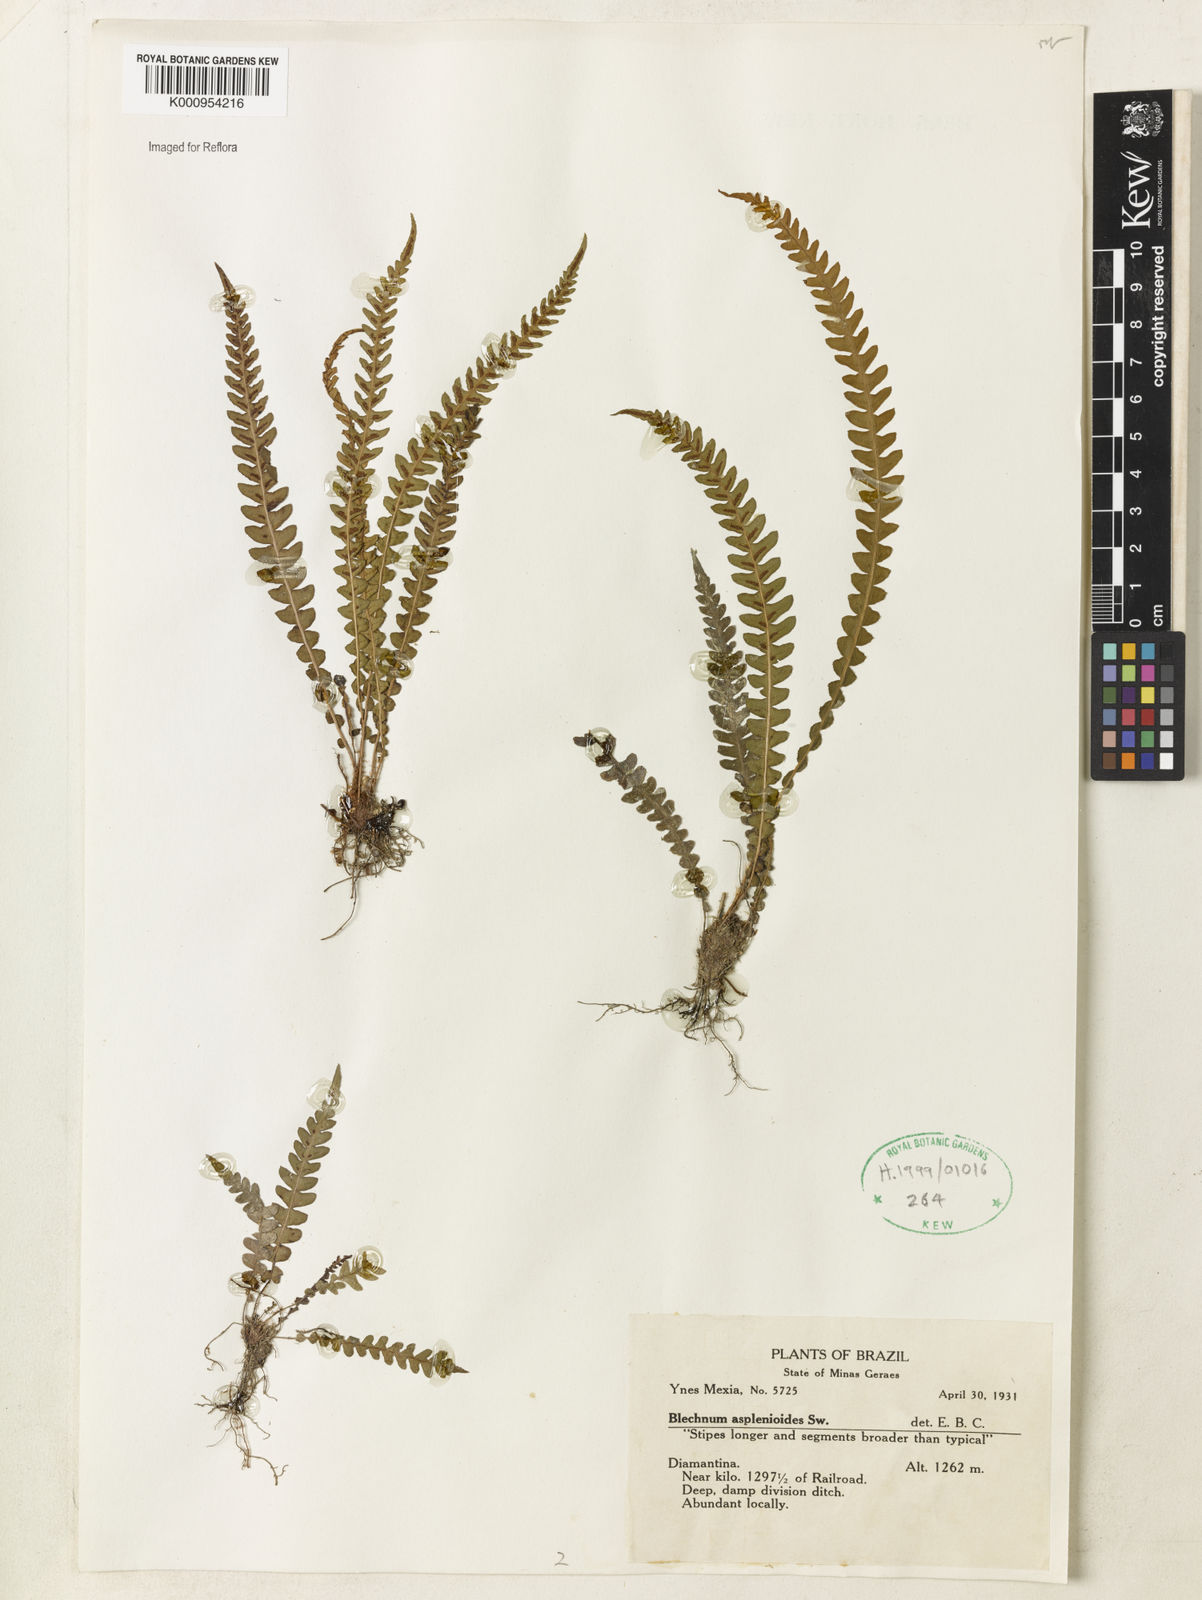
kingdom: Plantae
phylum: Tracheophyta
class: Polypodiopsida
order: Polypodiales
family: Blechnaceae
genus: Blechnum
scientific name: Blechnum asplenioides
